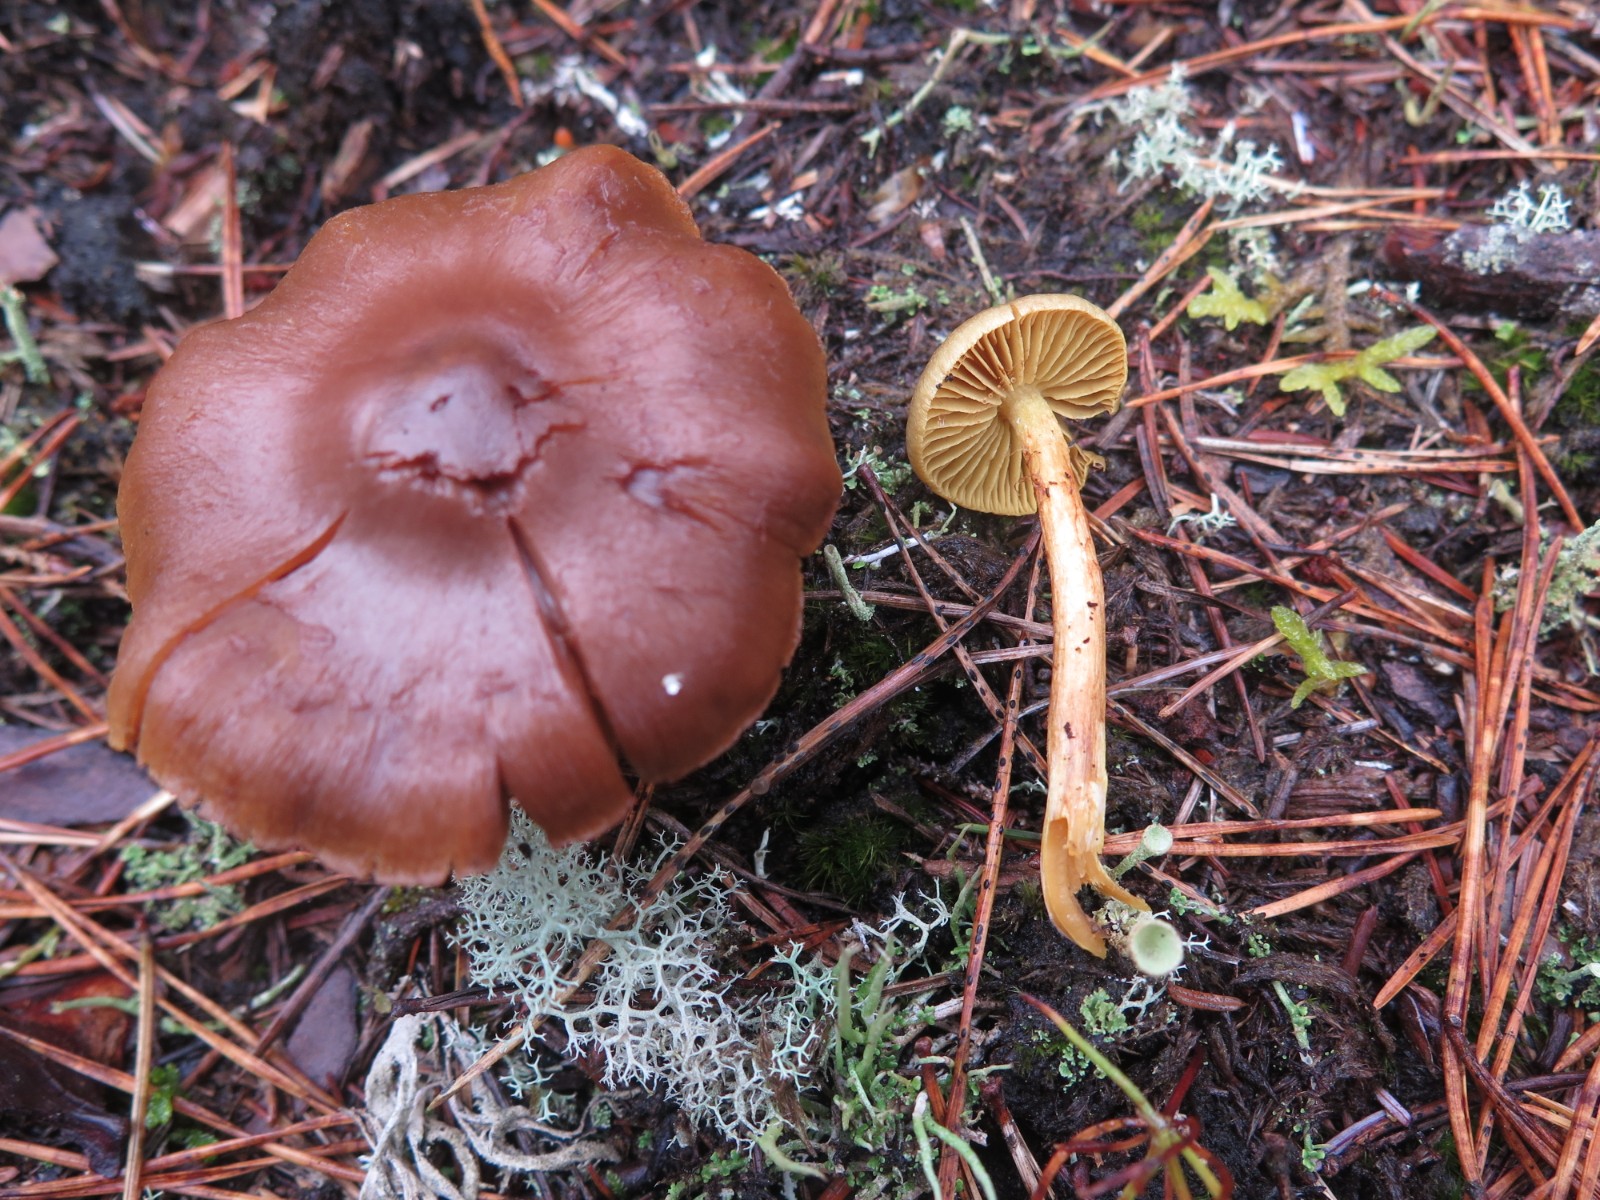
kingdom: Fungi
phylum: Basidiomycota
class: Agaricomycetes
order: Agaricales
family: Cortinariaceae
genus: Cortinarius
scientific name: Cortinarius
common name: gulbladet slørhat
